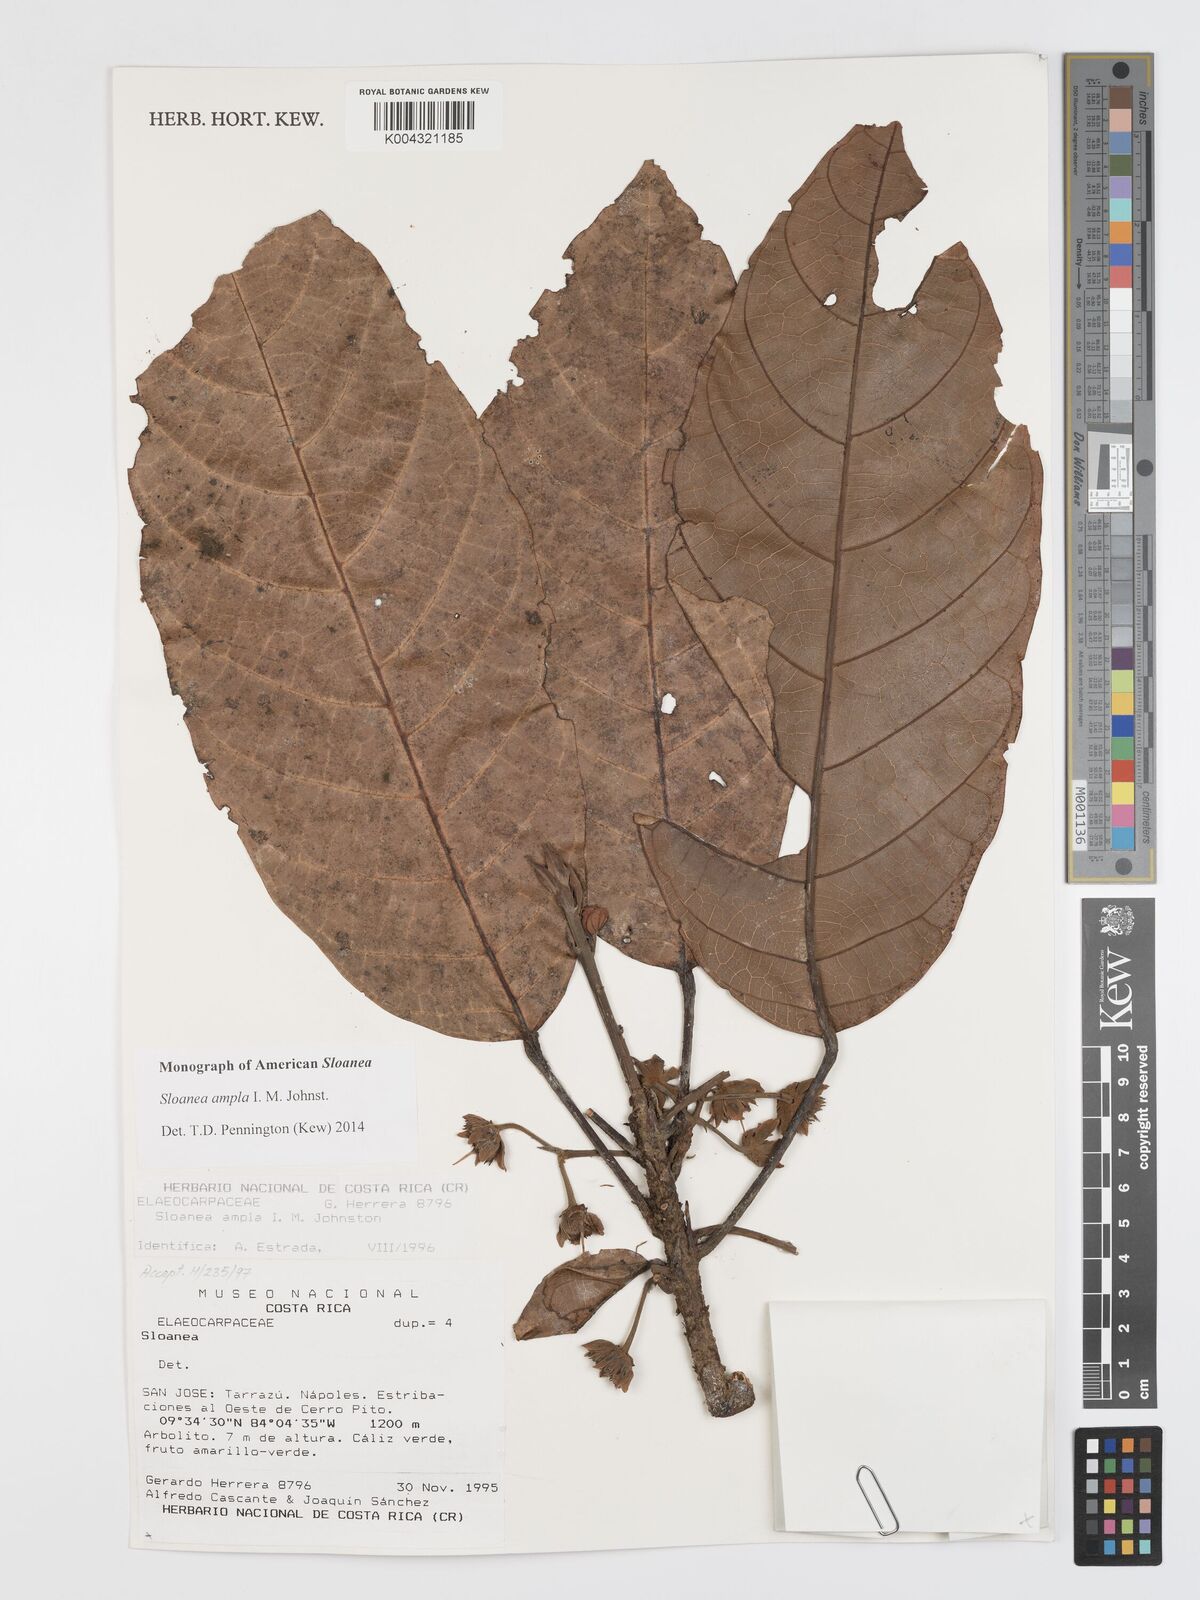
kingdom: Plantae
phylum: Tracheophyta
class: Magnoliopsida
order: Oxalidales
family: Elaeocarpaceae
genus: Sloanea
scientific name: Sloanea ampla
